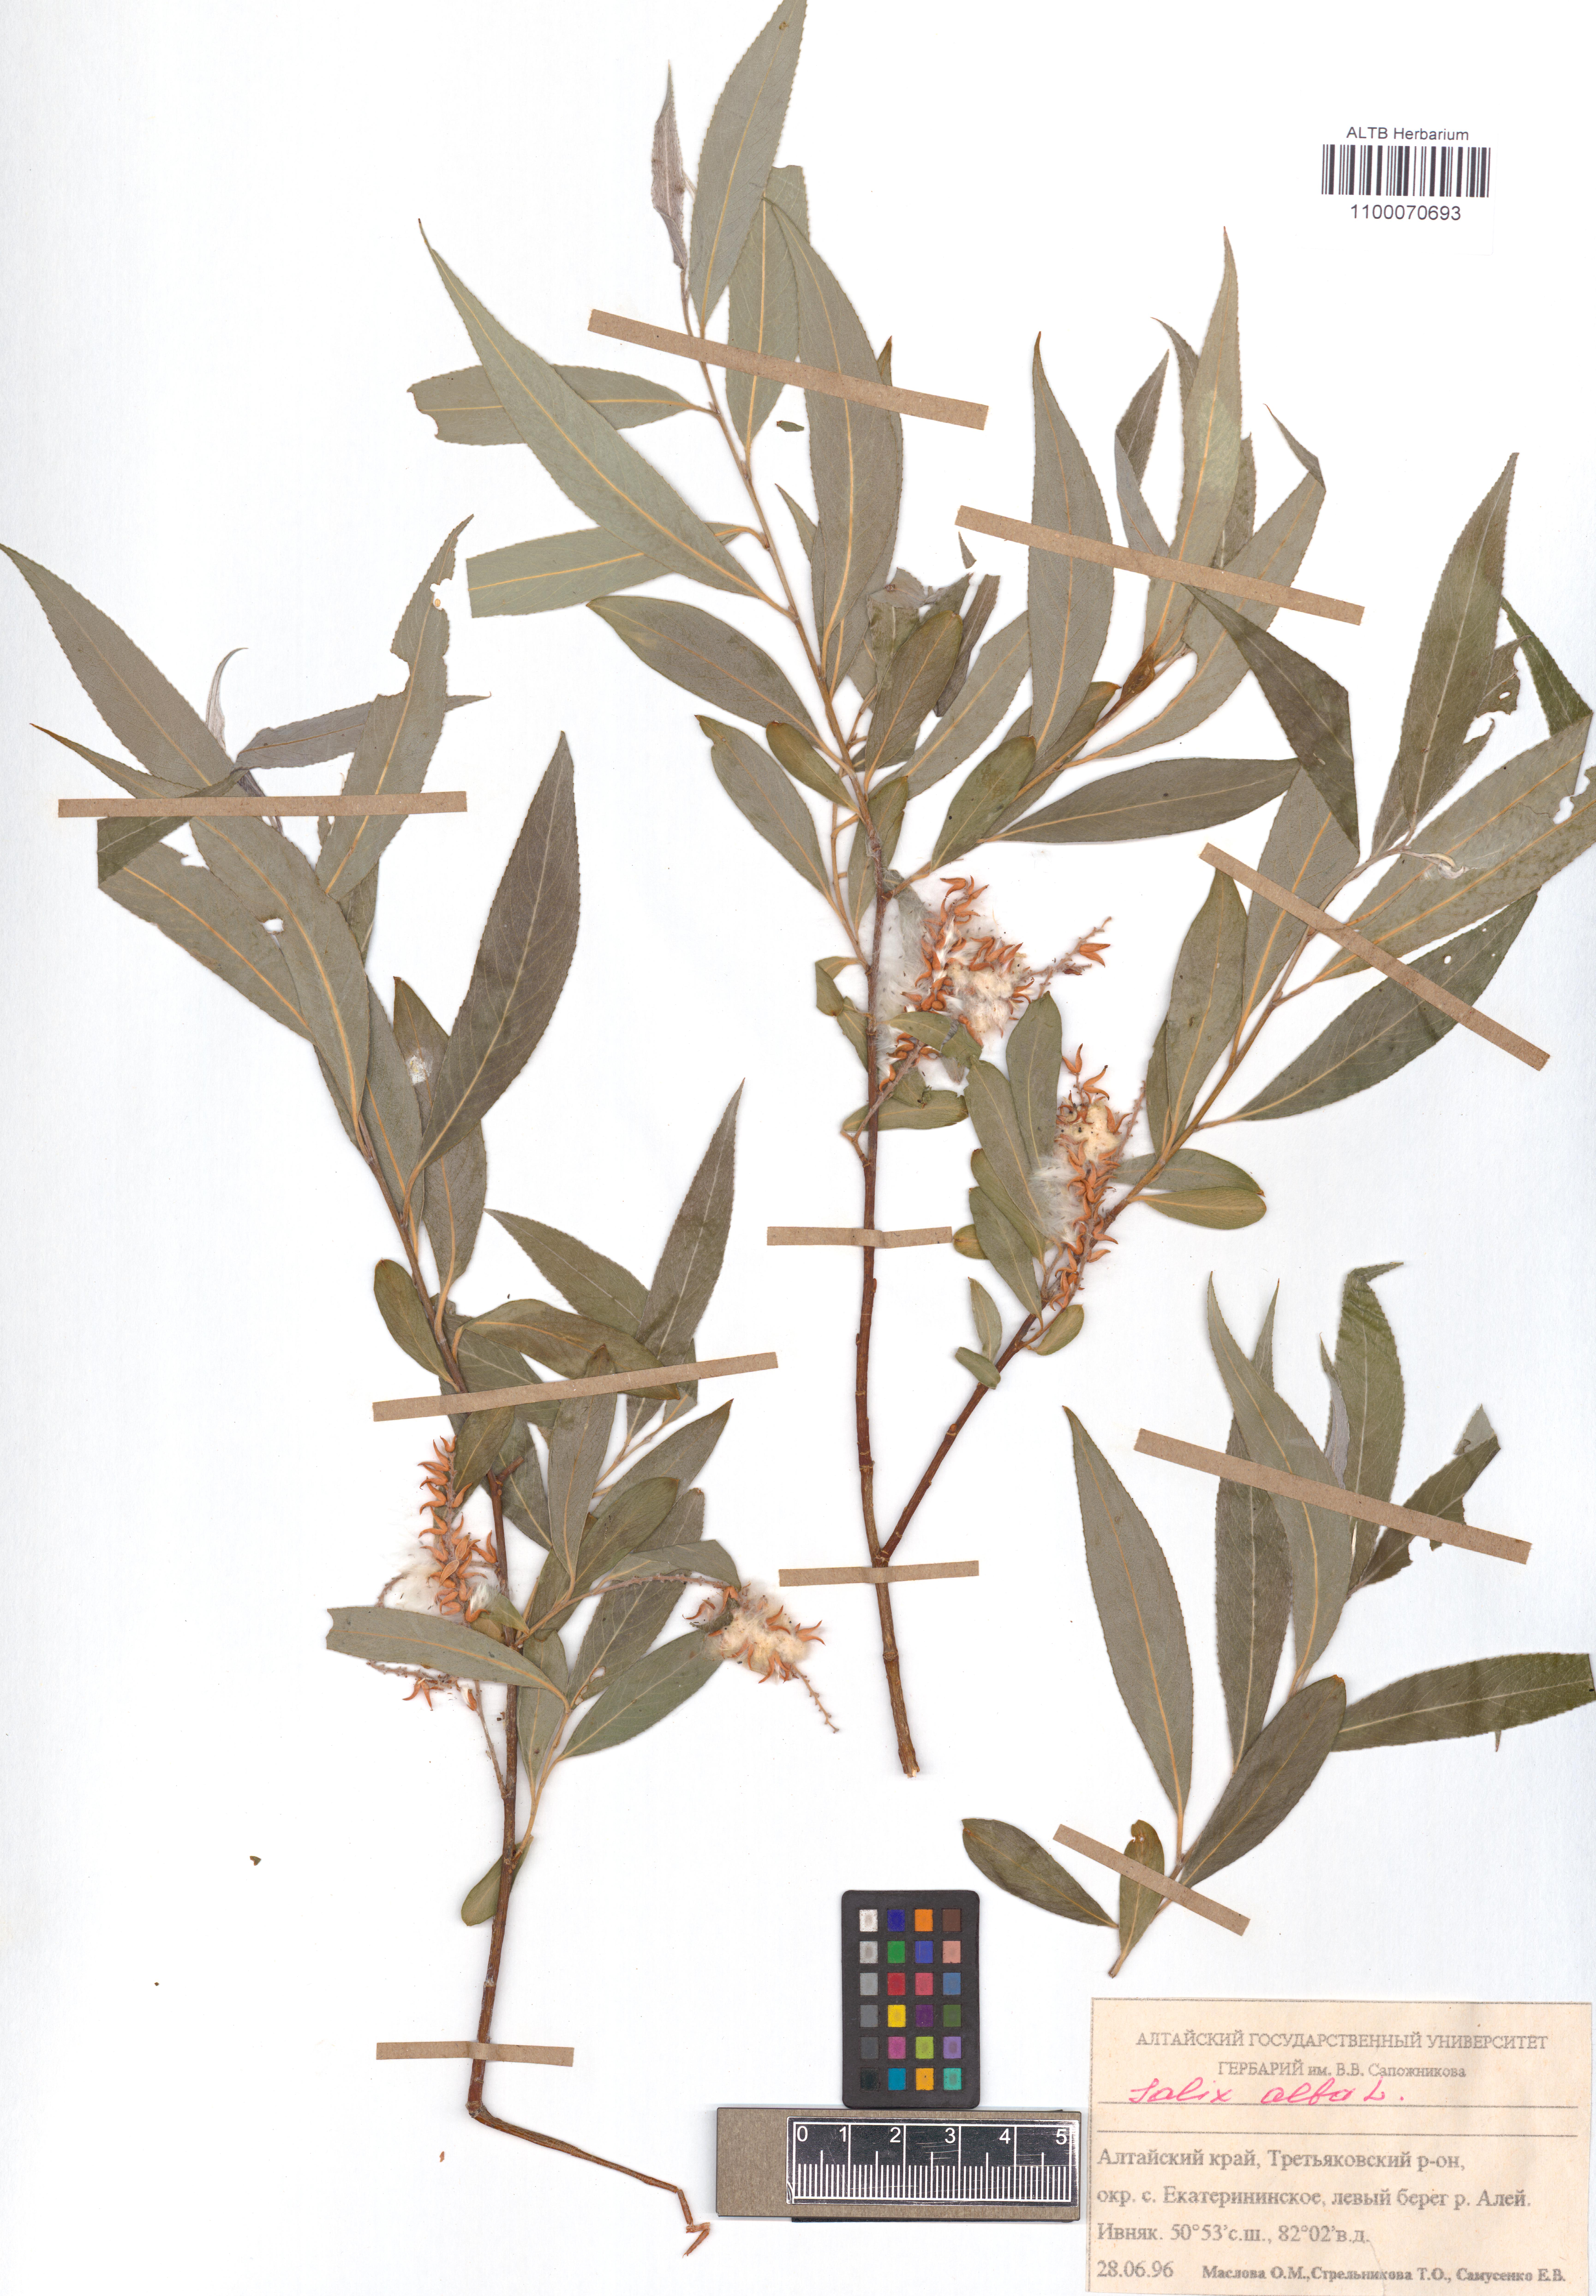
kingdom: Plantae
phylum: Tracheophyta
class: Magnoliopsida
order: Malpighiales
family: Salicaceae
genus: Salix
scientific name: Salix alba
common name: White willow
